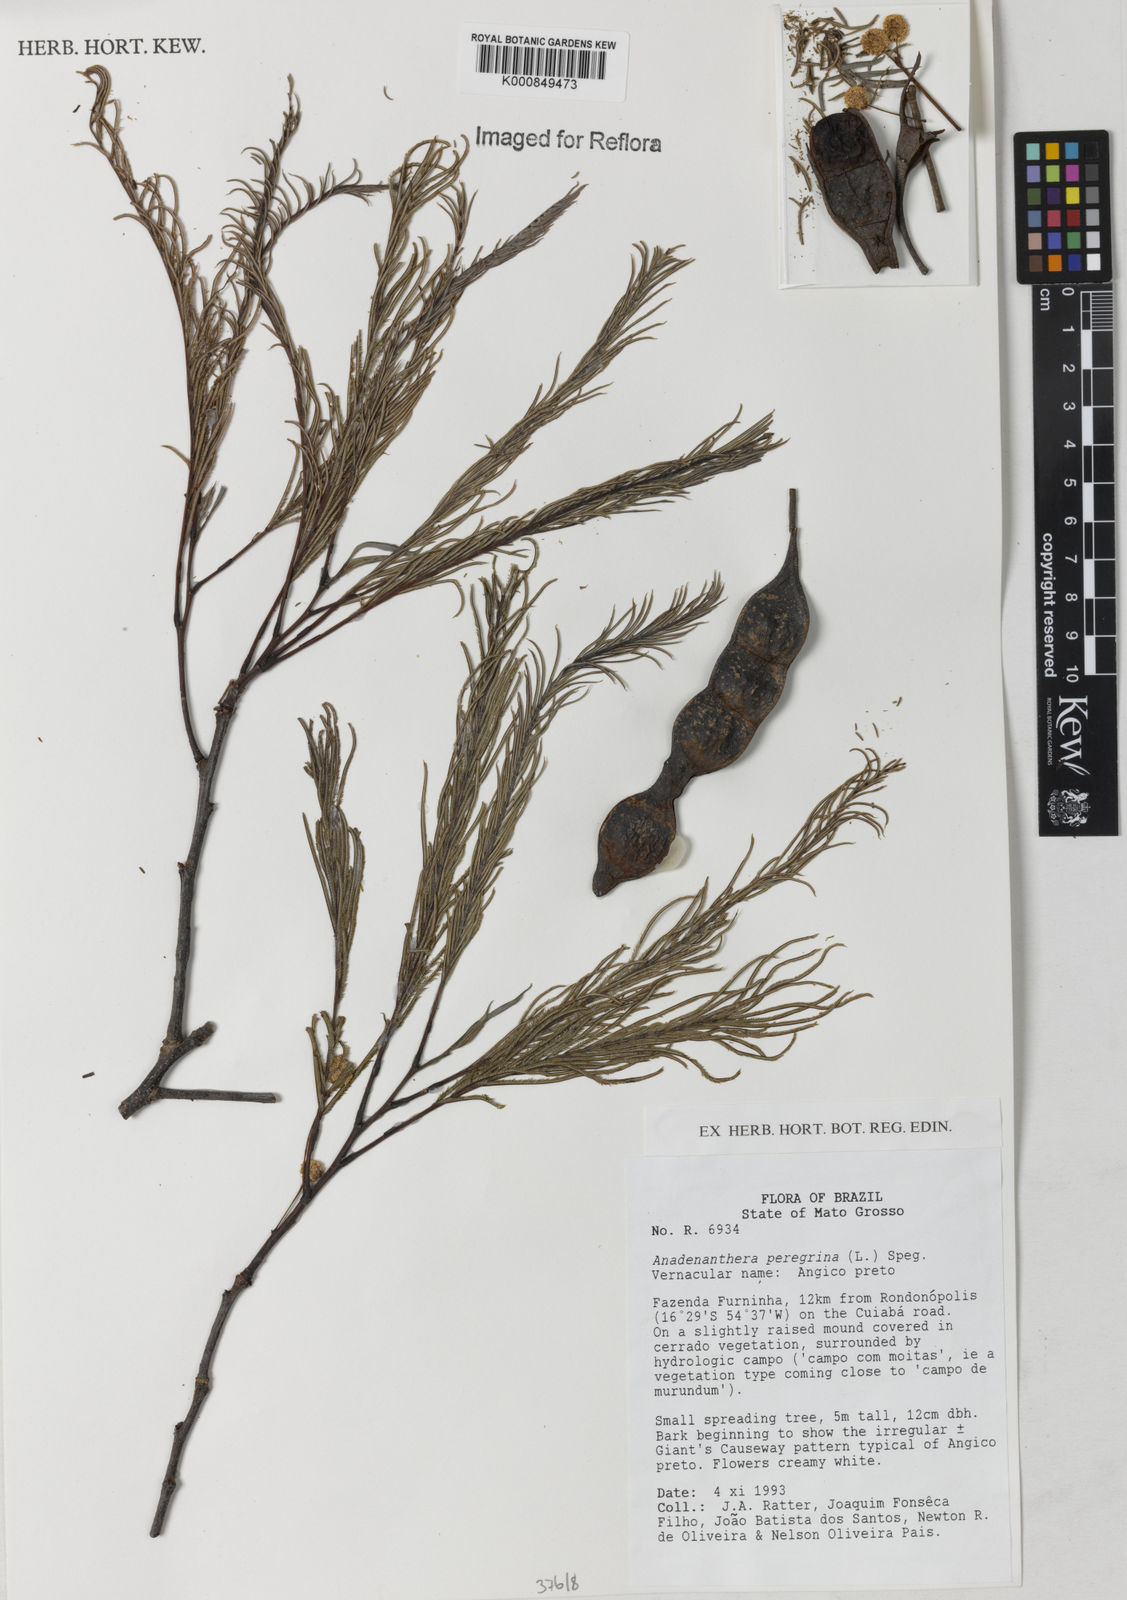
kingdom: Plantae
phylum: Tracheophyta
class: Magnoliopsida
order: Fabales
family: Fabaceae
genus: Anadenanthera
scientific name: Anadenanthera peregrina
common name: Cohoba
